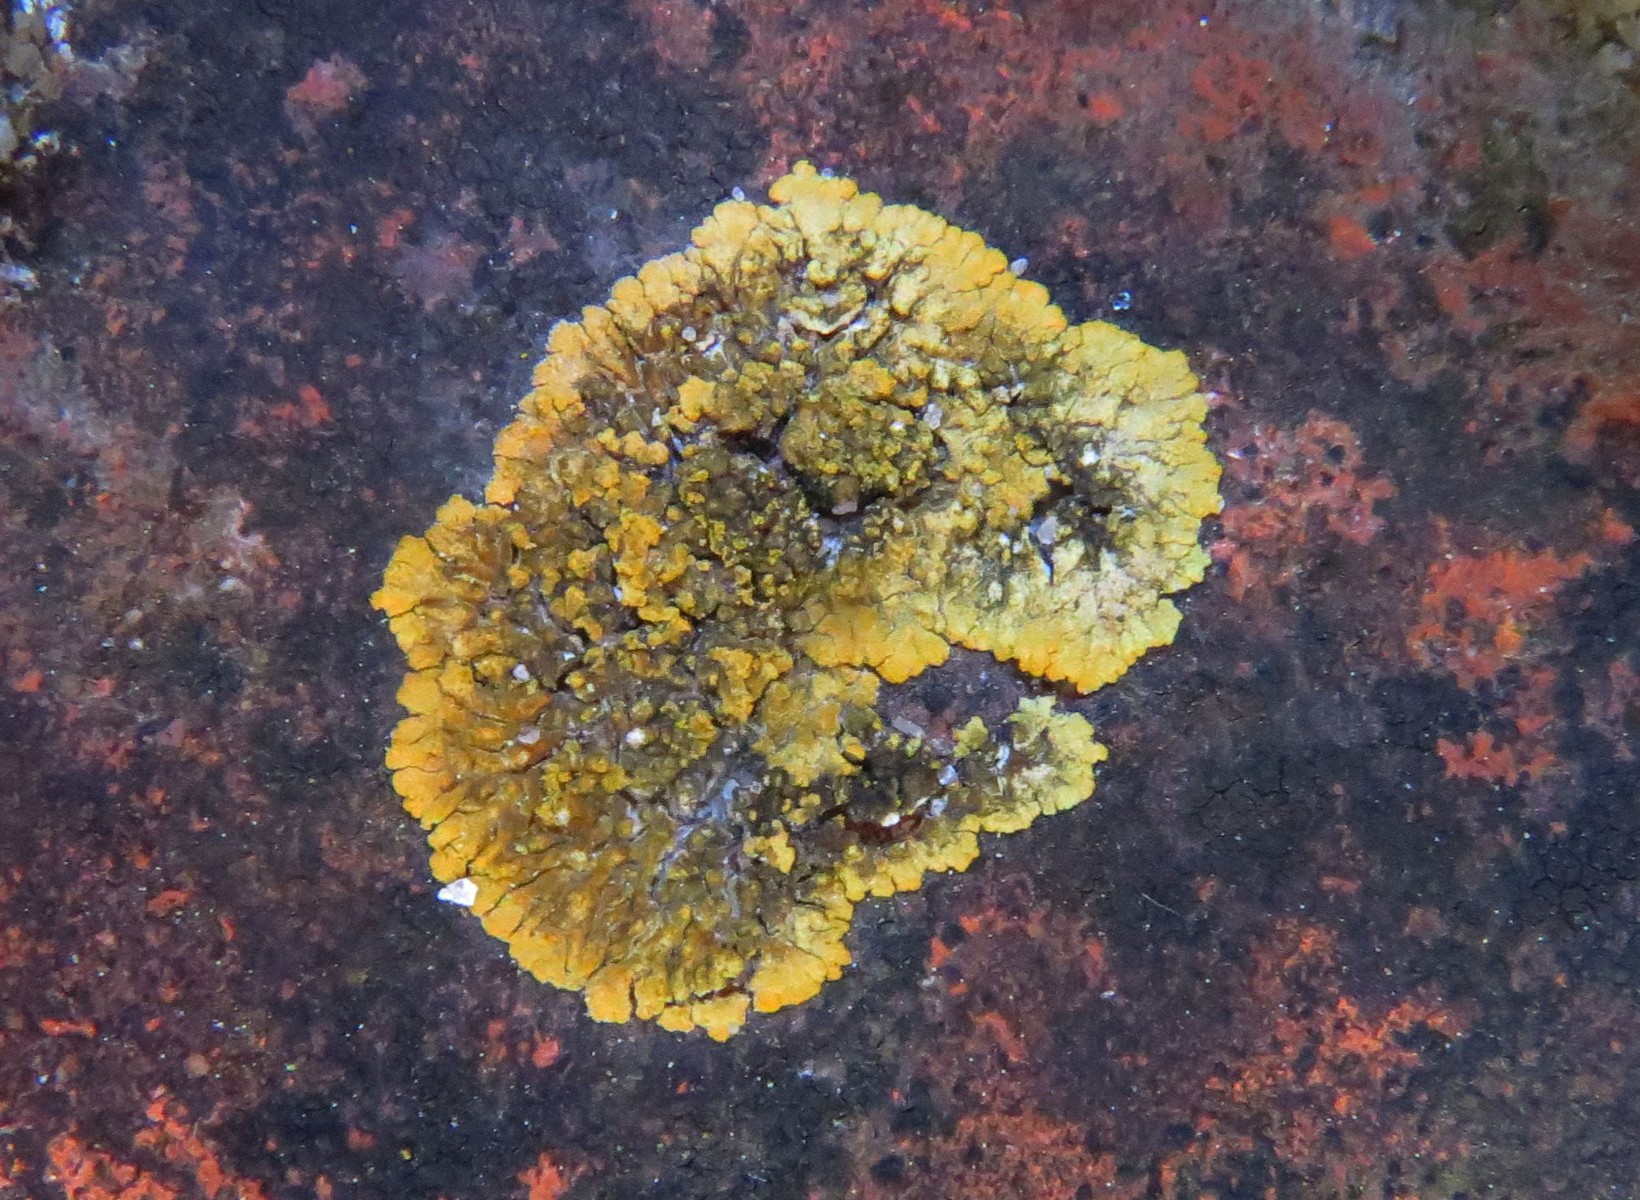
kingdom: Fungi
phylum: Ascomycota
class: Lecanoromycetes
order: Teloschistales
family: Teloschistaceae
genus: Calogaya
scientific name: Calogaya decipiens
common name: knudret orangelav
